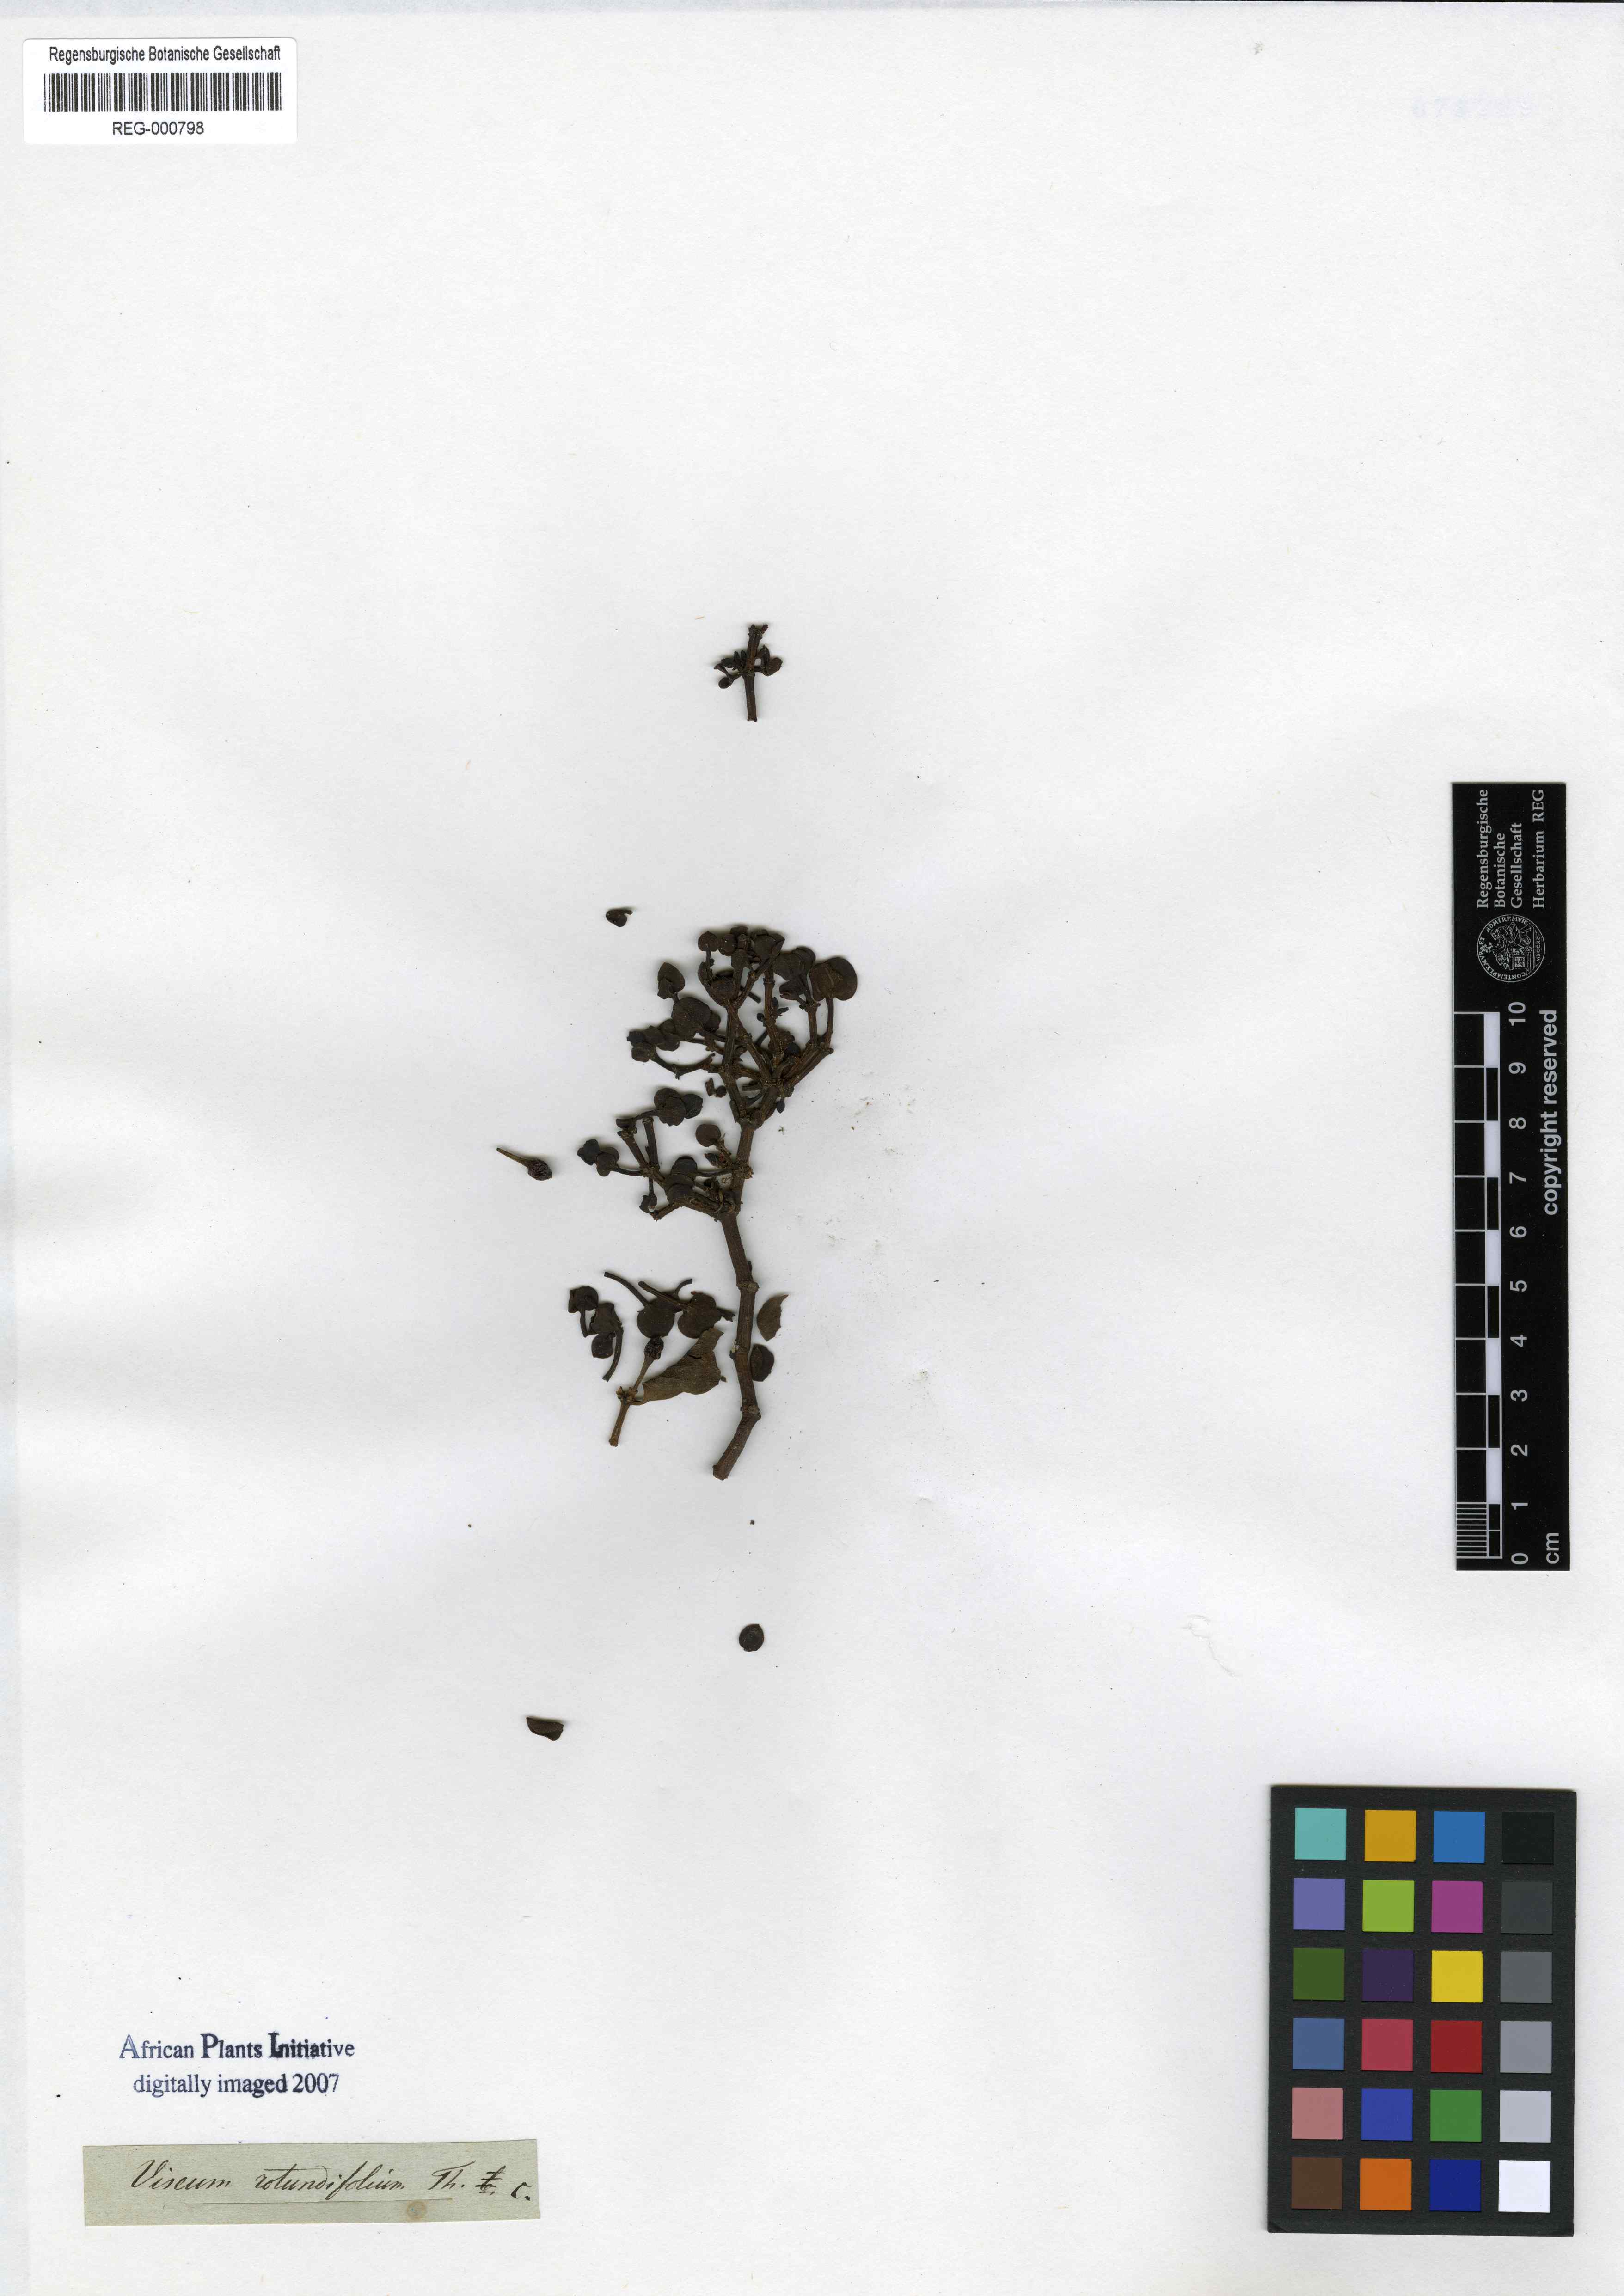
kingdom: Plantae
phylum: Tracheophyta
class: Magnoliopsida
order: Santalales
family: Viscaceae
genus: Viscum
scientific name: Viscum rotundifolium
